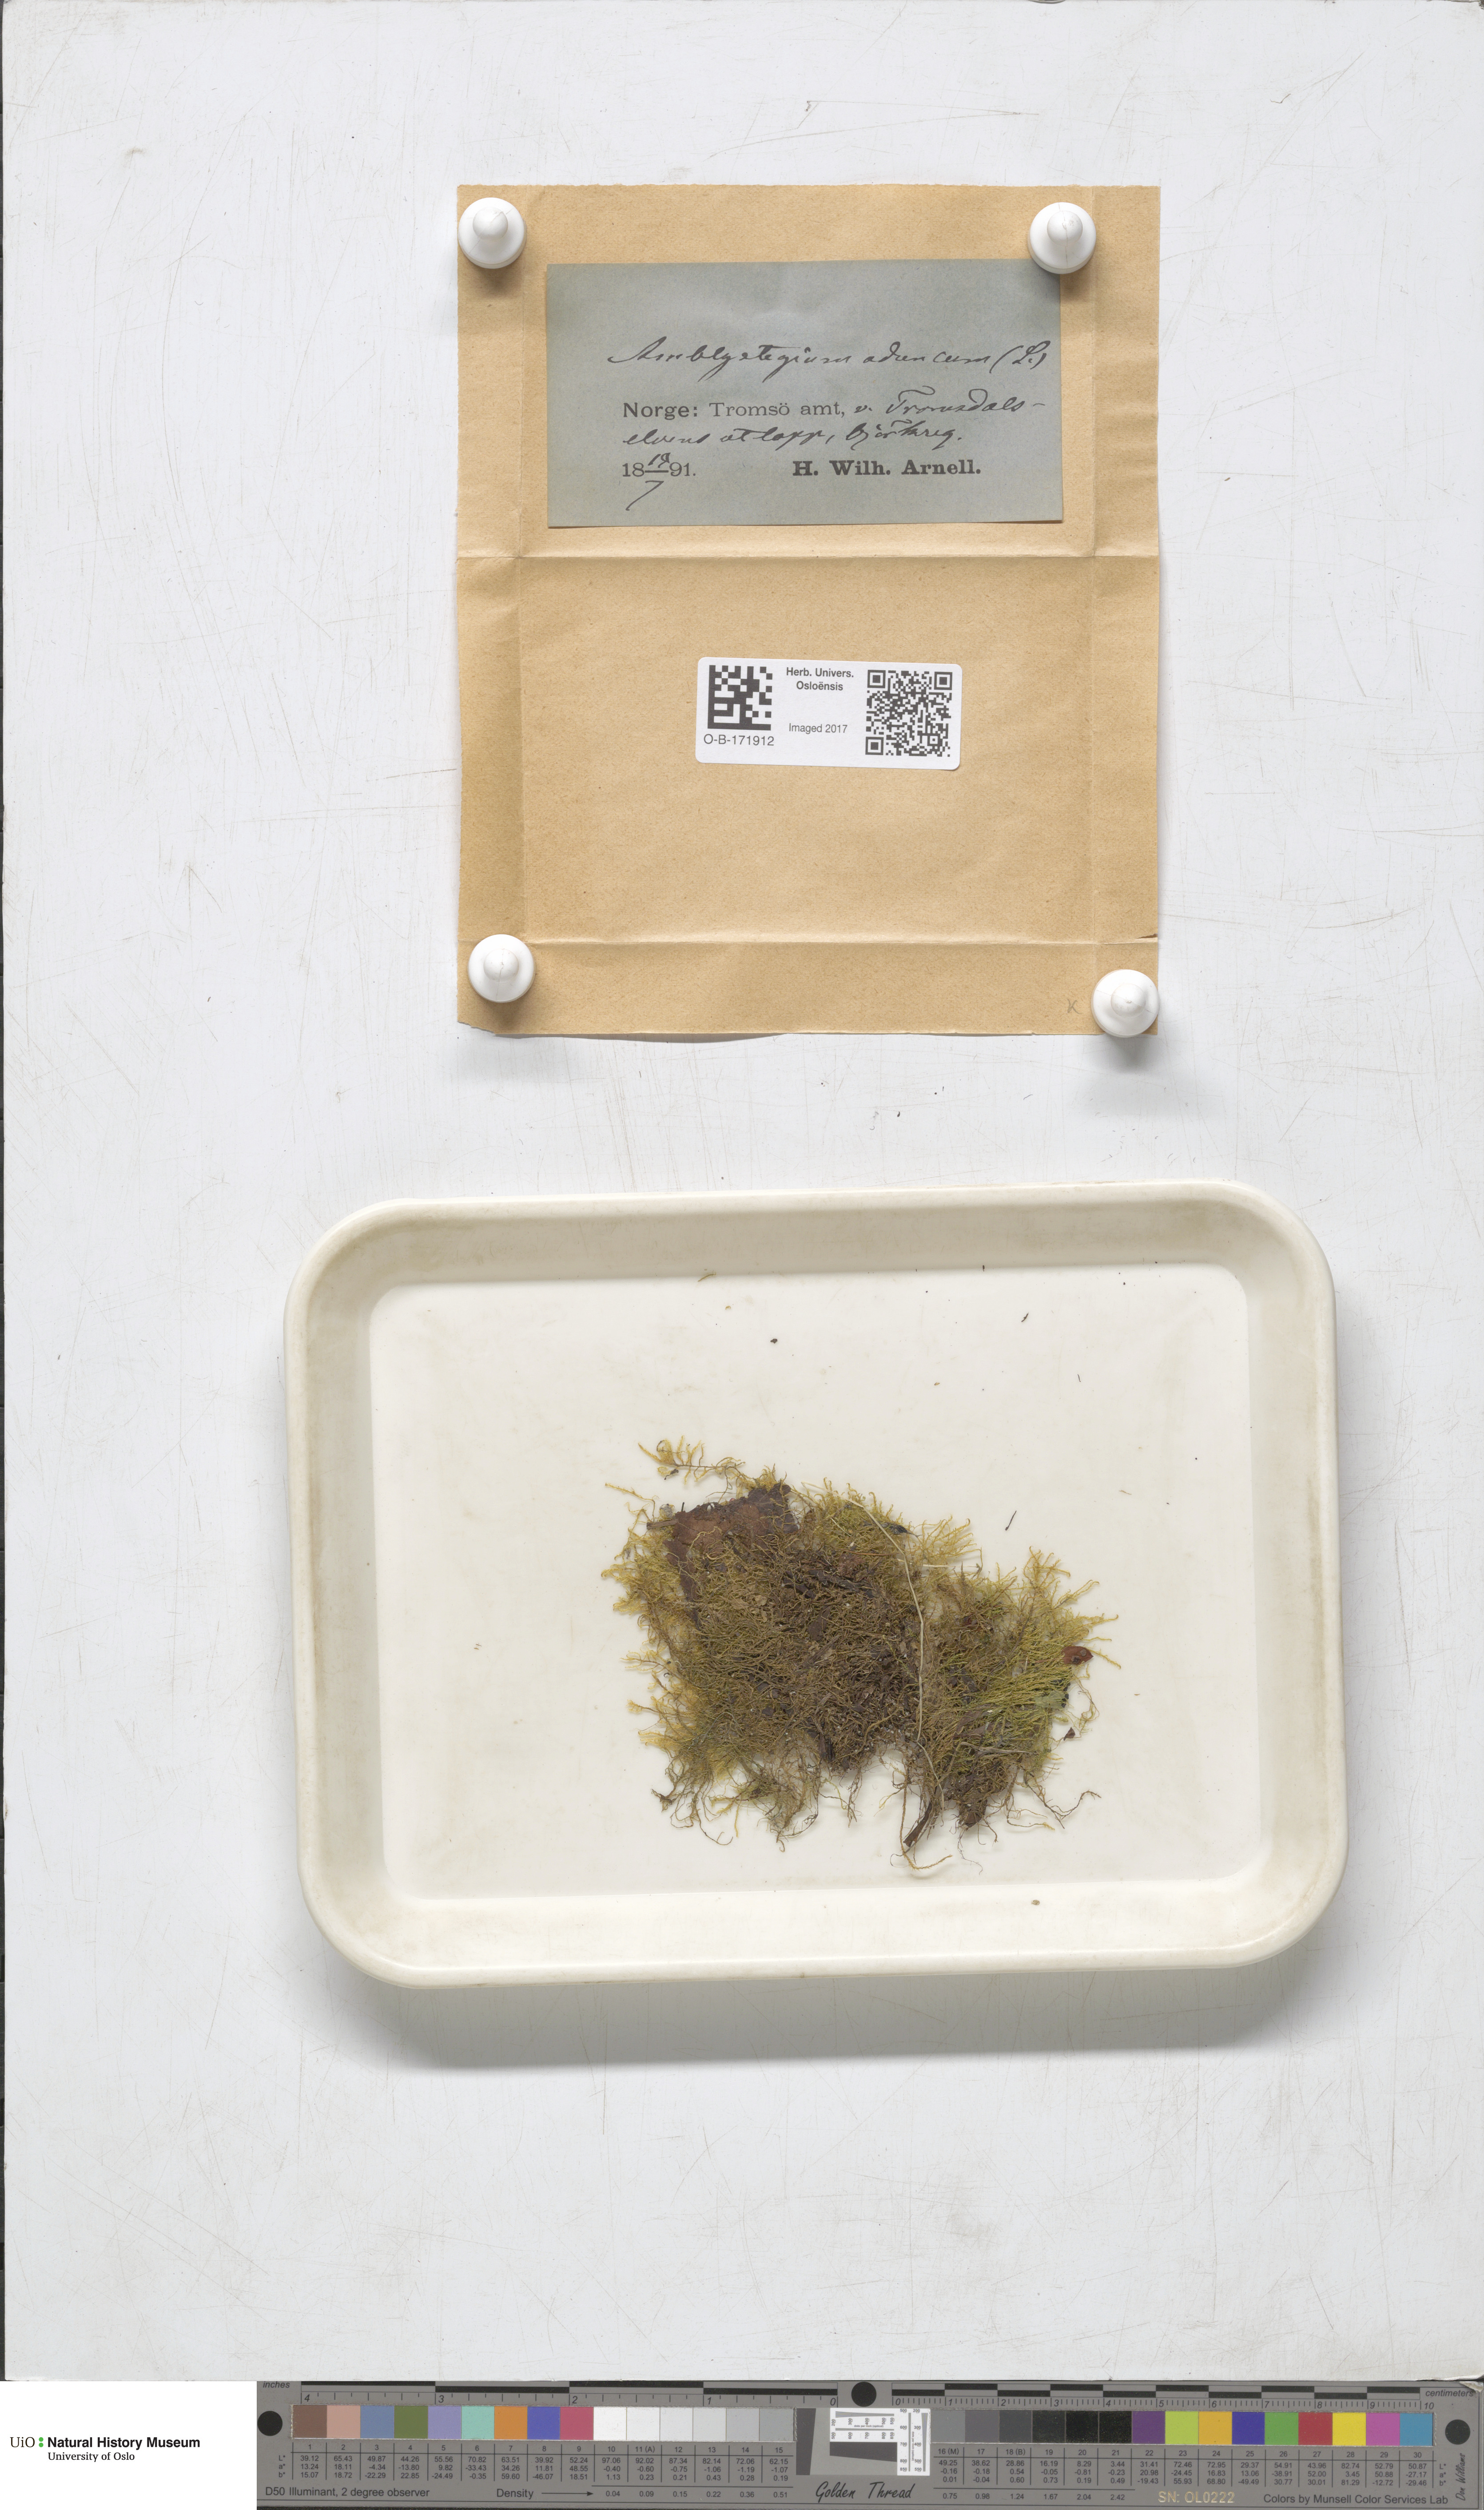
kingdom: Plantae
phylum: Bryophyta
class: Bryopsida
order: Hypnales
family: Amblystegiaceae
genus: Drepanocladus
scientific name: Drepanocladus aduncus
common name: Knieff's hook moss
